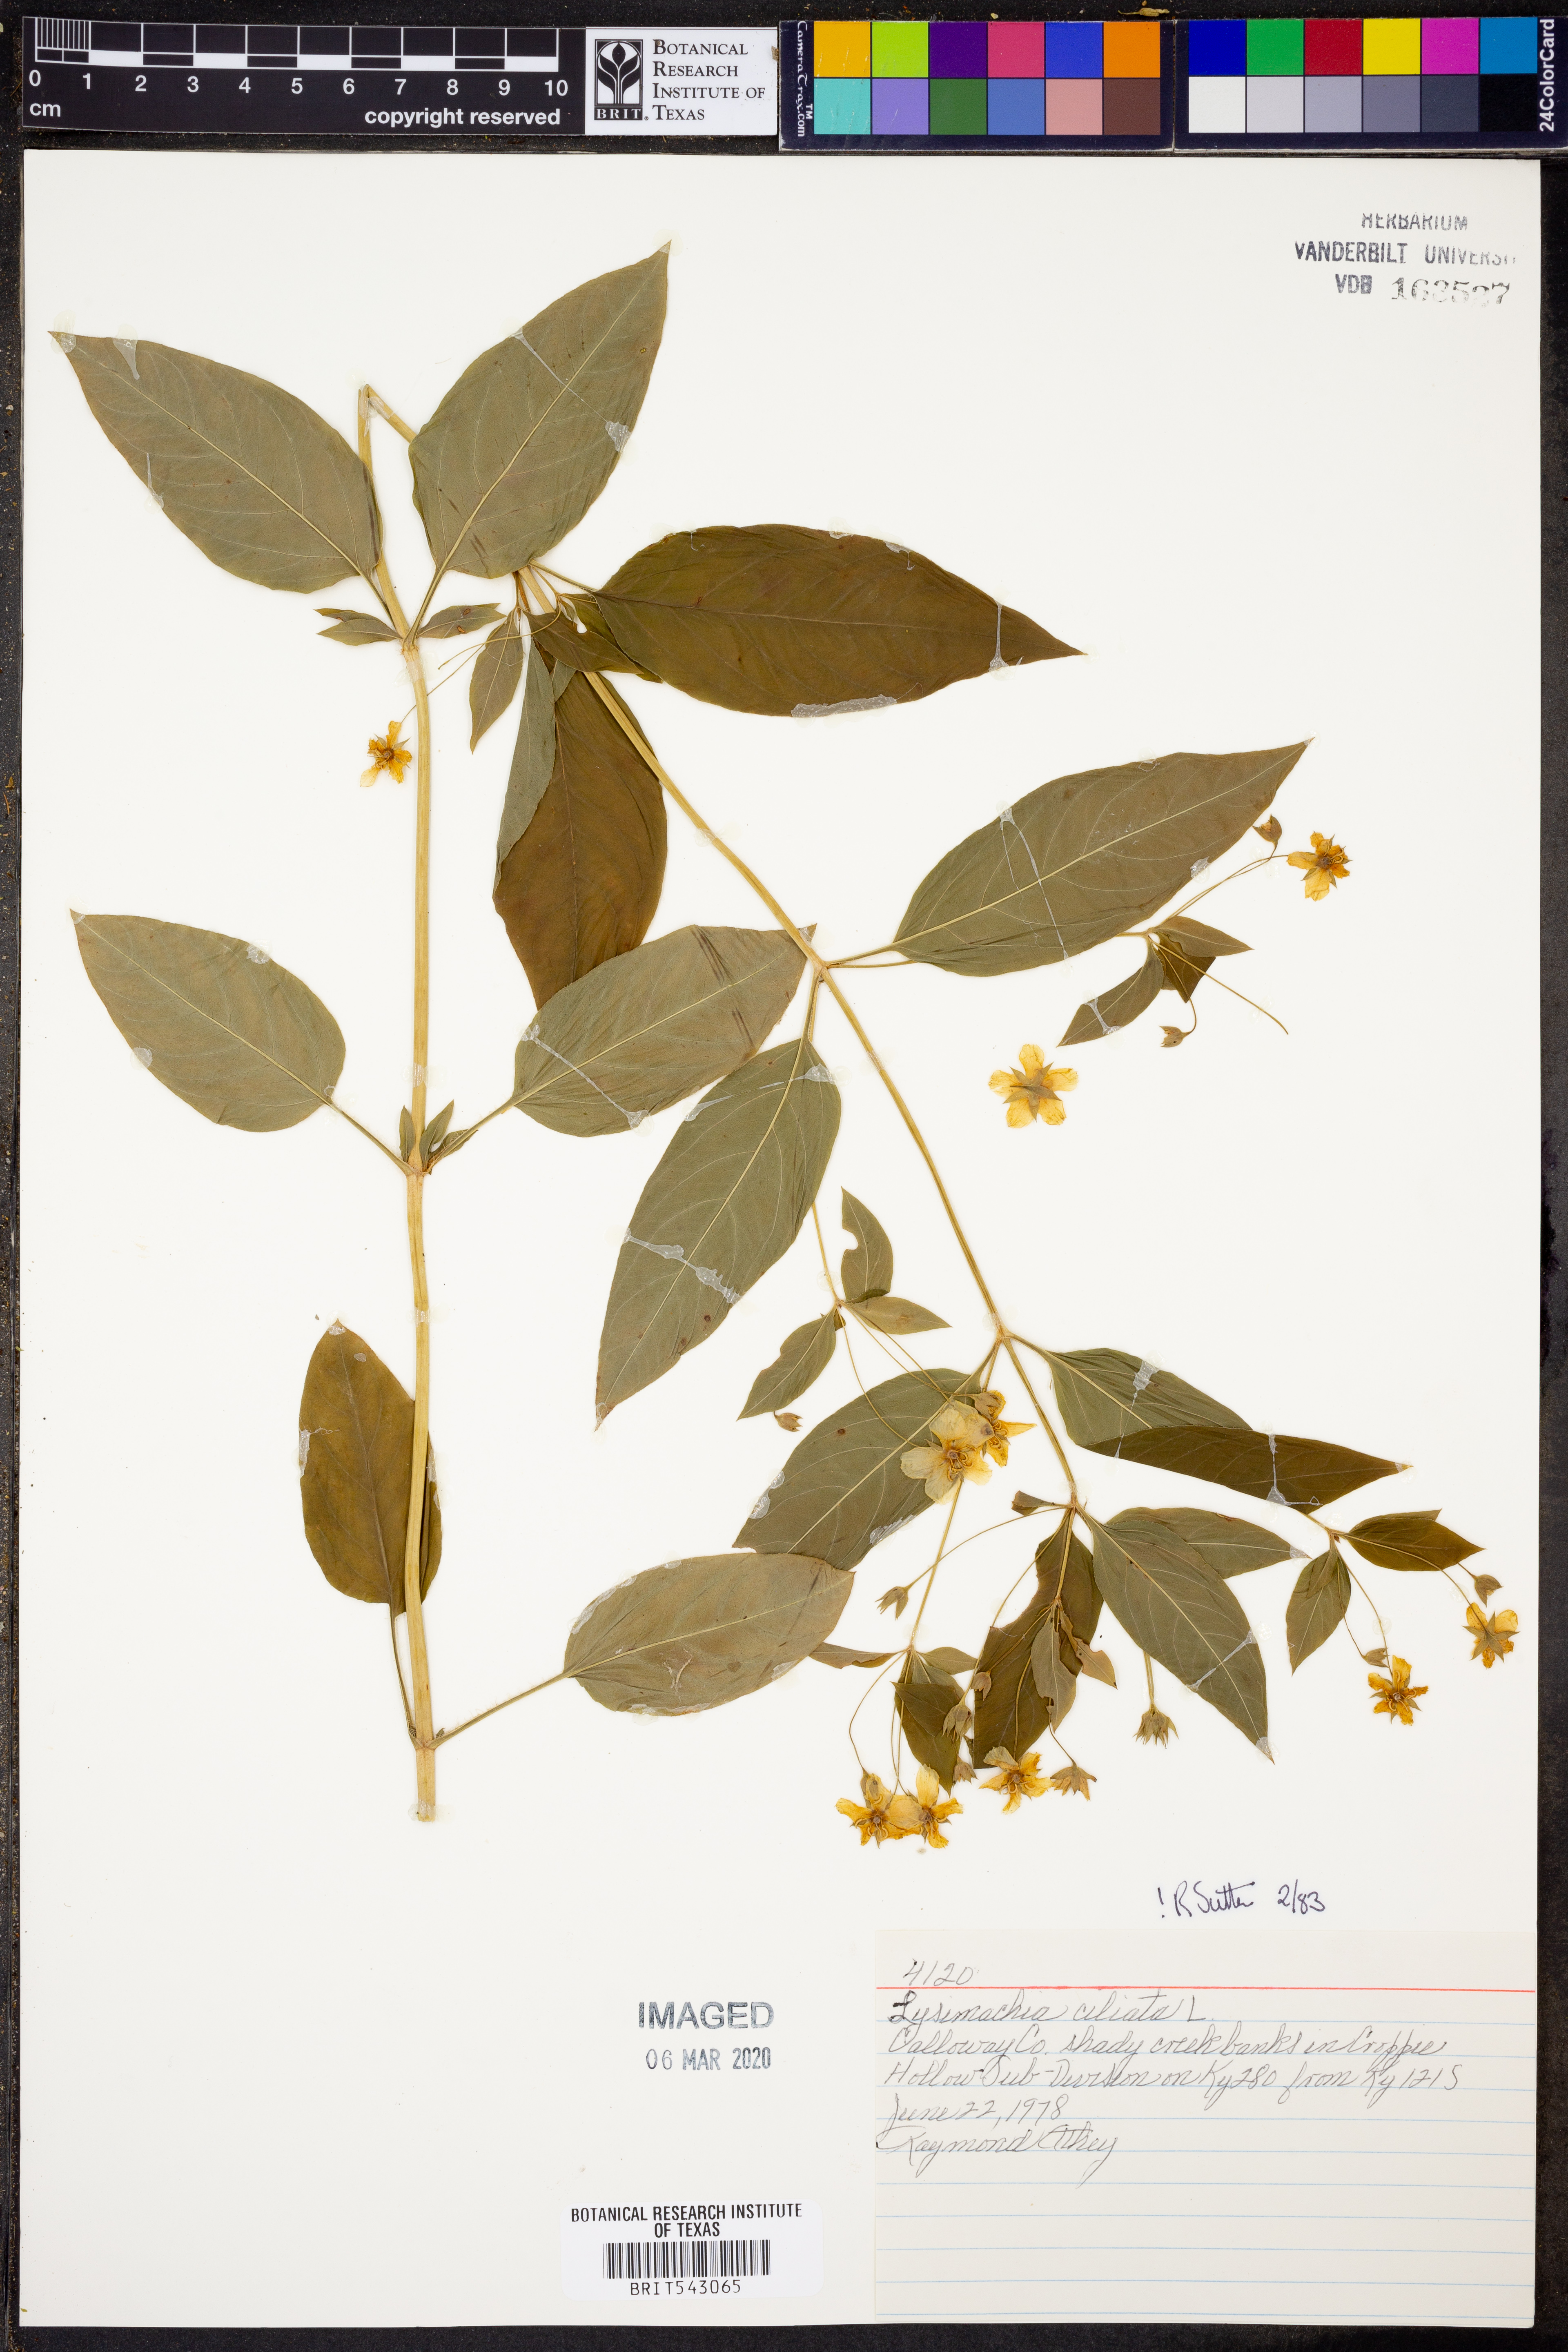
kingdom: Plantae
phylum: Tracheophyta
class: Magnoliopsida
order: Ericales
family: Primulaceae
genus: Lysimachia
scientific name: Lysimachia ciliata
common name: Fringed loosestrife
